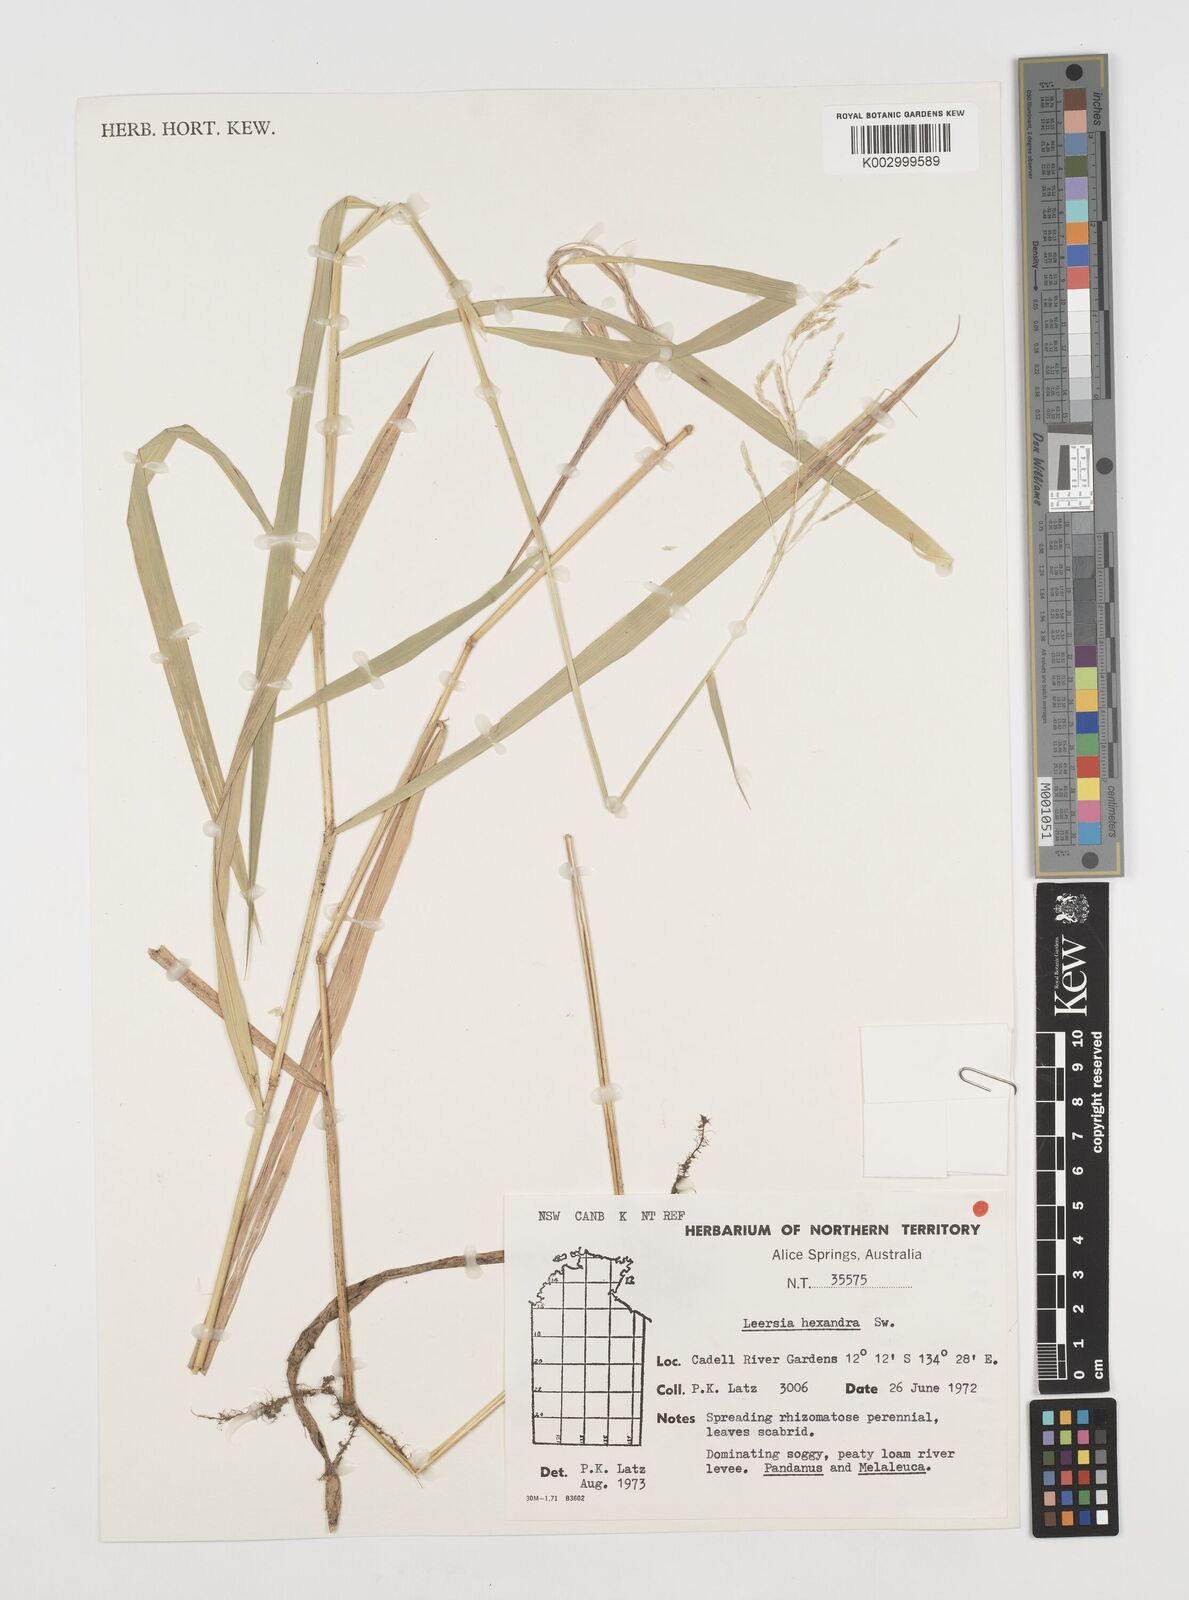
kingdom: Plantae
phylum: Tracheophyta
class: Liliopsida
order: Poales
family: Poaceae
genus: Leersia
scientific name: Leersia hexandra
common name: Southern cut grass
